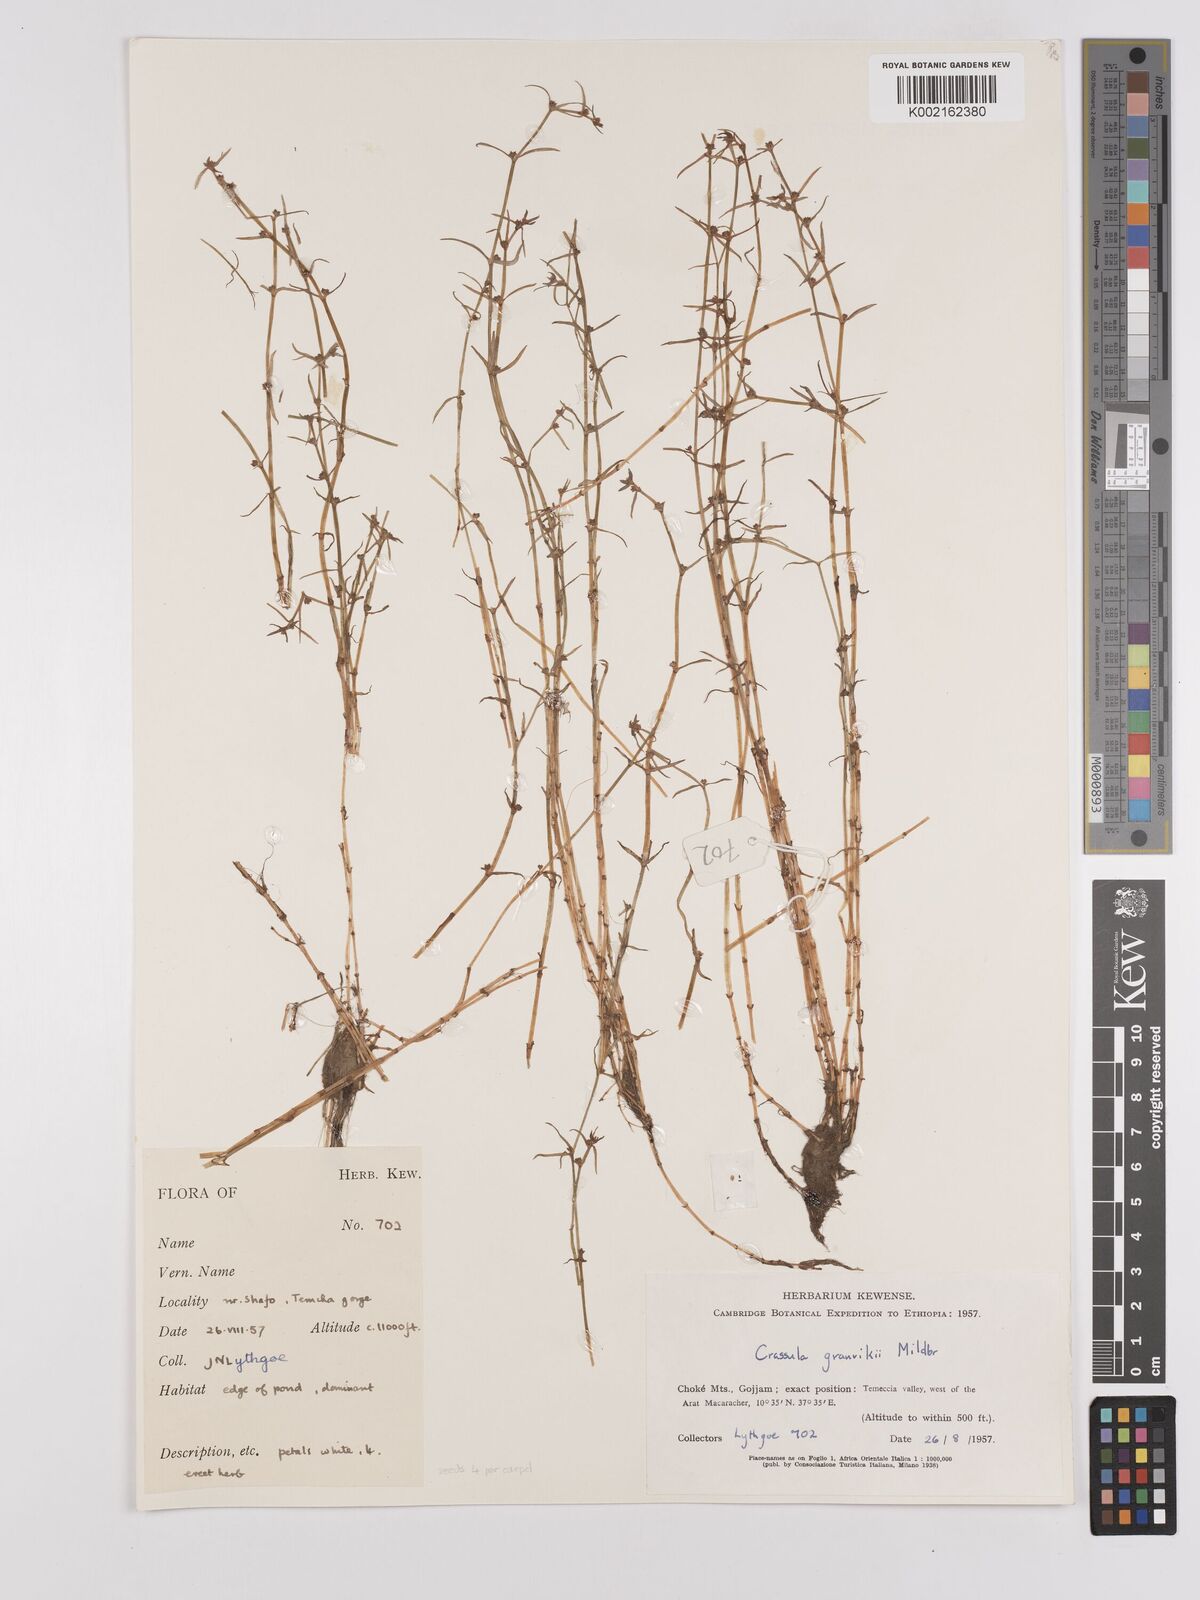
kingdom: Plantae
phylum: Tracheophyta
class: Magnoliopsida
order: Saxifragales
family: Crassulaceae
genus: Crassula
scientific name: Crassula granvikii
